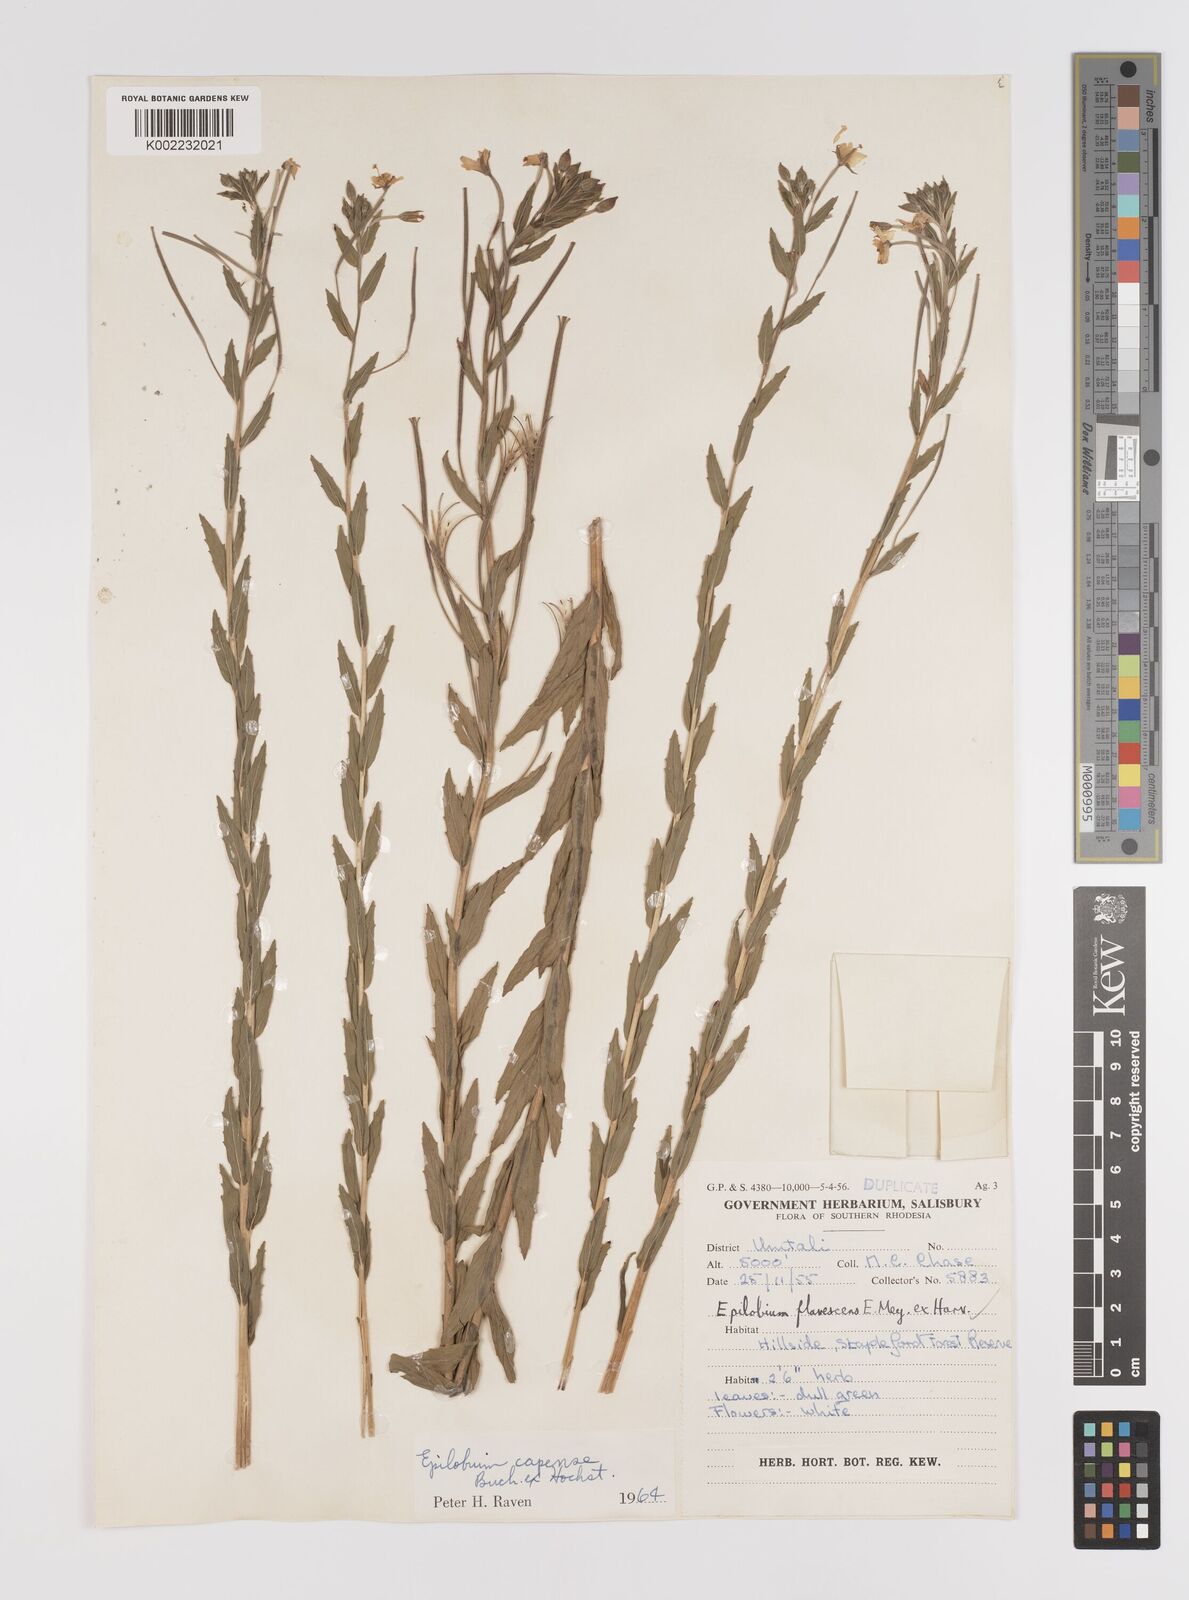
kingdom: Plantae
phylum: Tracheophyta
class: Magnoliopsida
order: Myrtales
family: Onagraceae
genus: Epilobium
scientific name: Epilobium capense
